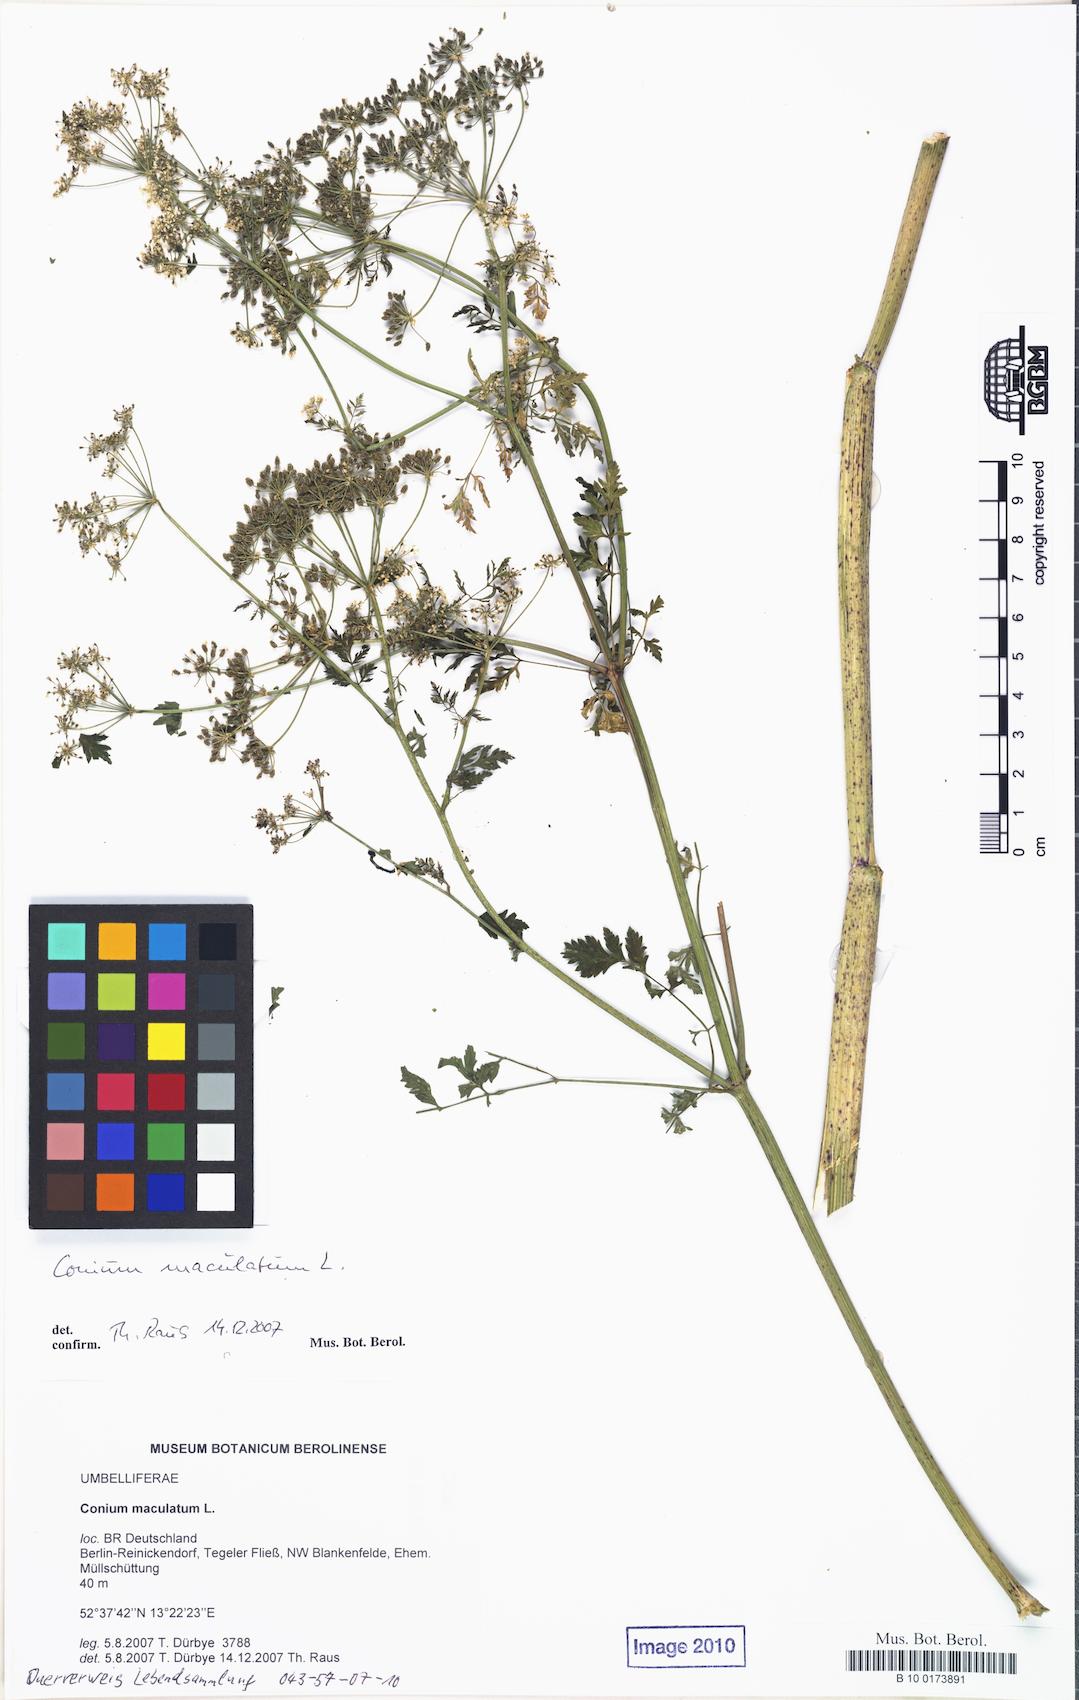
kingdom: Plantae
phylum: Tracheophyta
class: Magnoliopsida
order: Apiales
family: Apiaceae
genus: Conium
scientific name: Conium maculatum
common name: Hemlock
